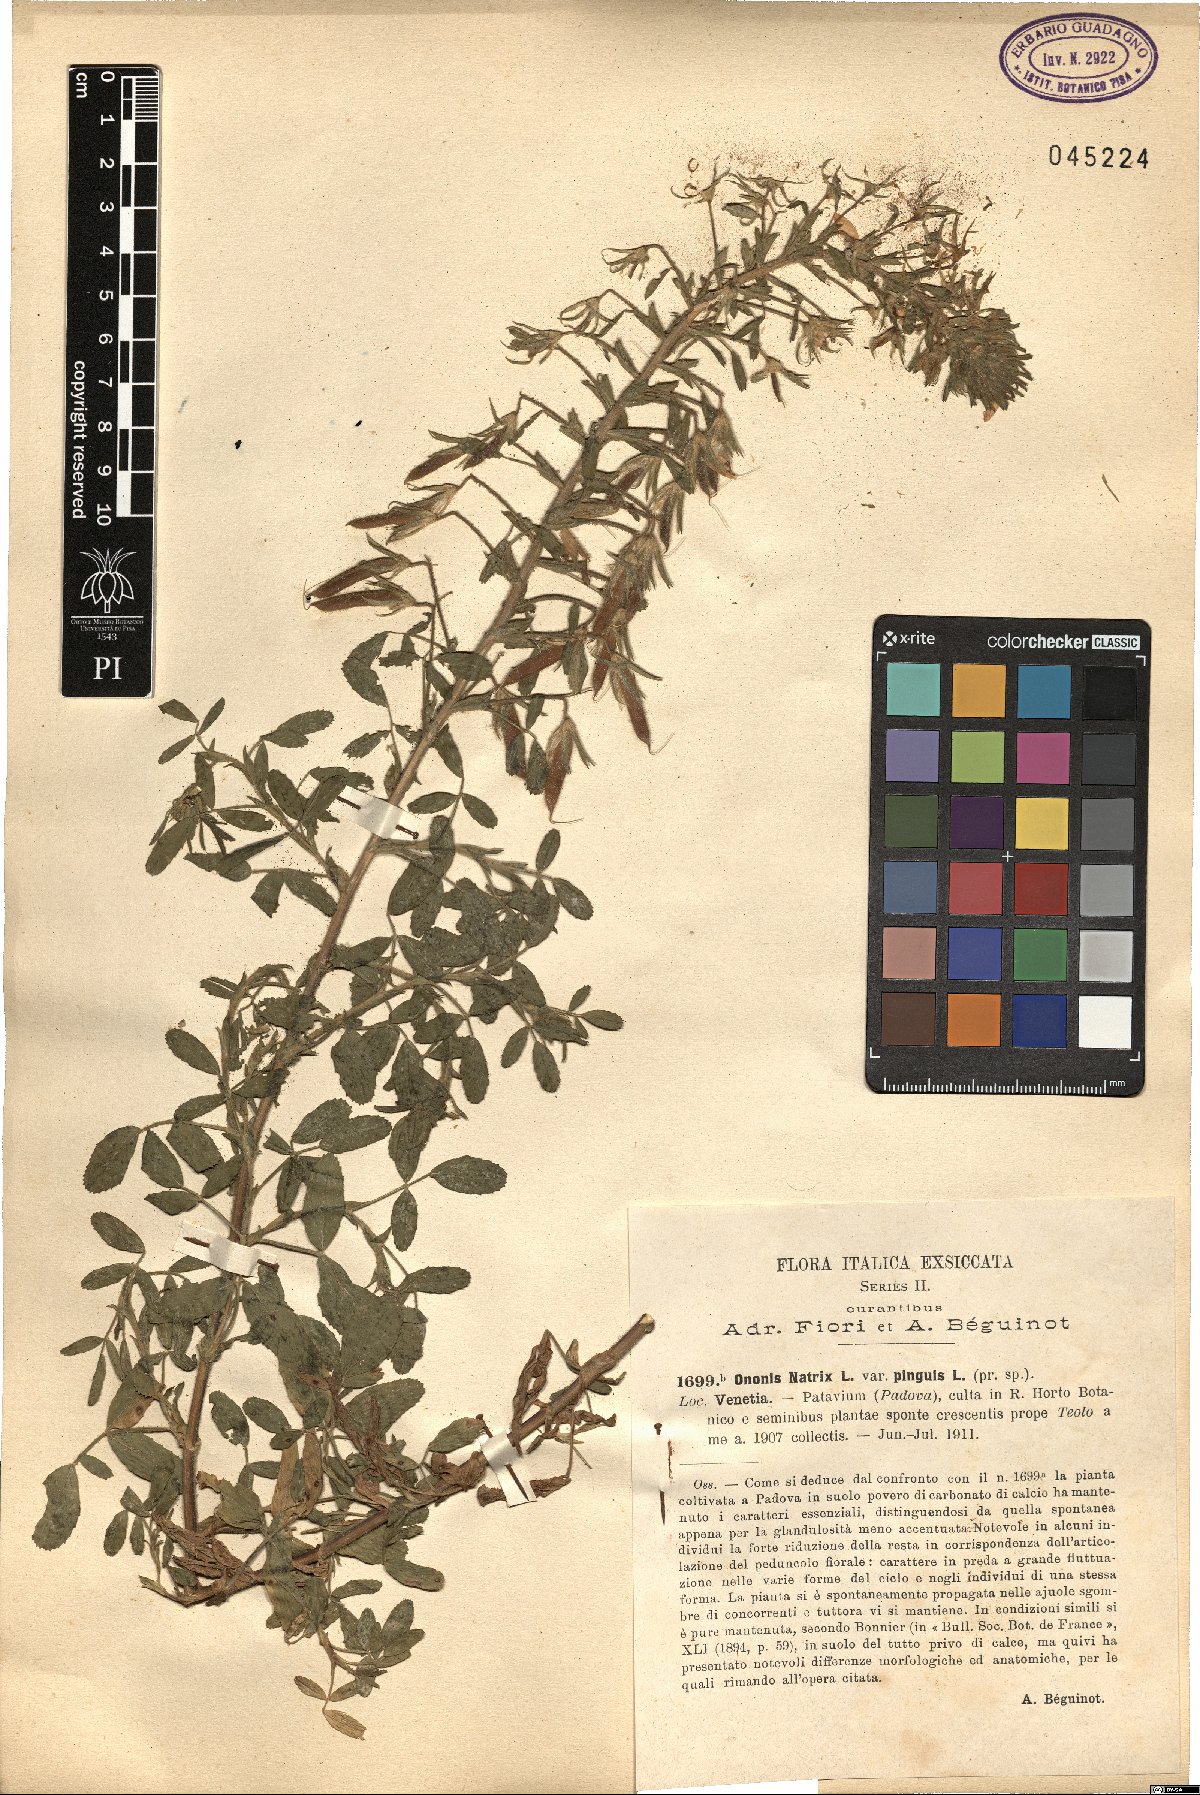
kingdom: Plantae
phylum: Tracheophyta
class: Magnoliopsida
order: Fabales
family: Fabaceae
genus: Ononis
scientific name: Ononis natrix
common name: Yellow restharrow
